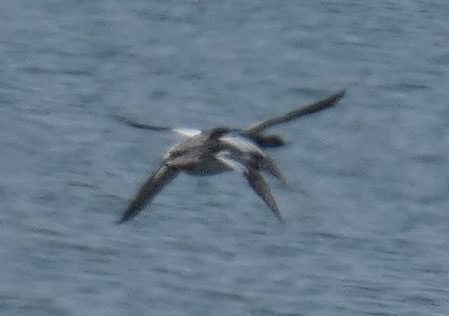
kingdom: Animalia
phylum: Chordata
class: Aves
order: Anseriformes
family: Anatidae
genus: Mergus
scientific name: Mergus serrator
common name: Toppet skallesluger
